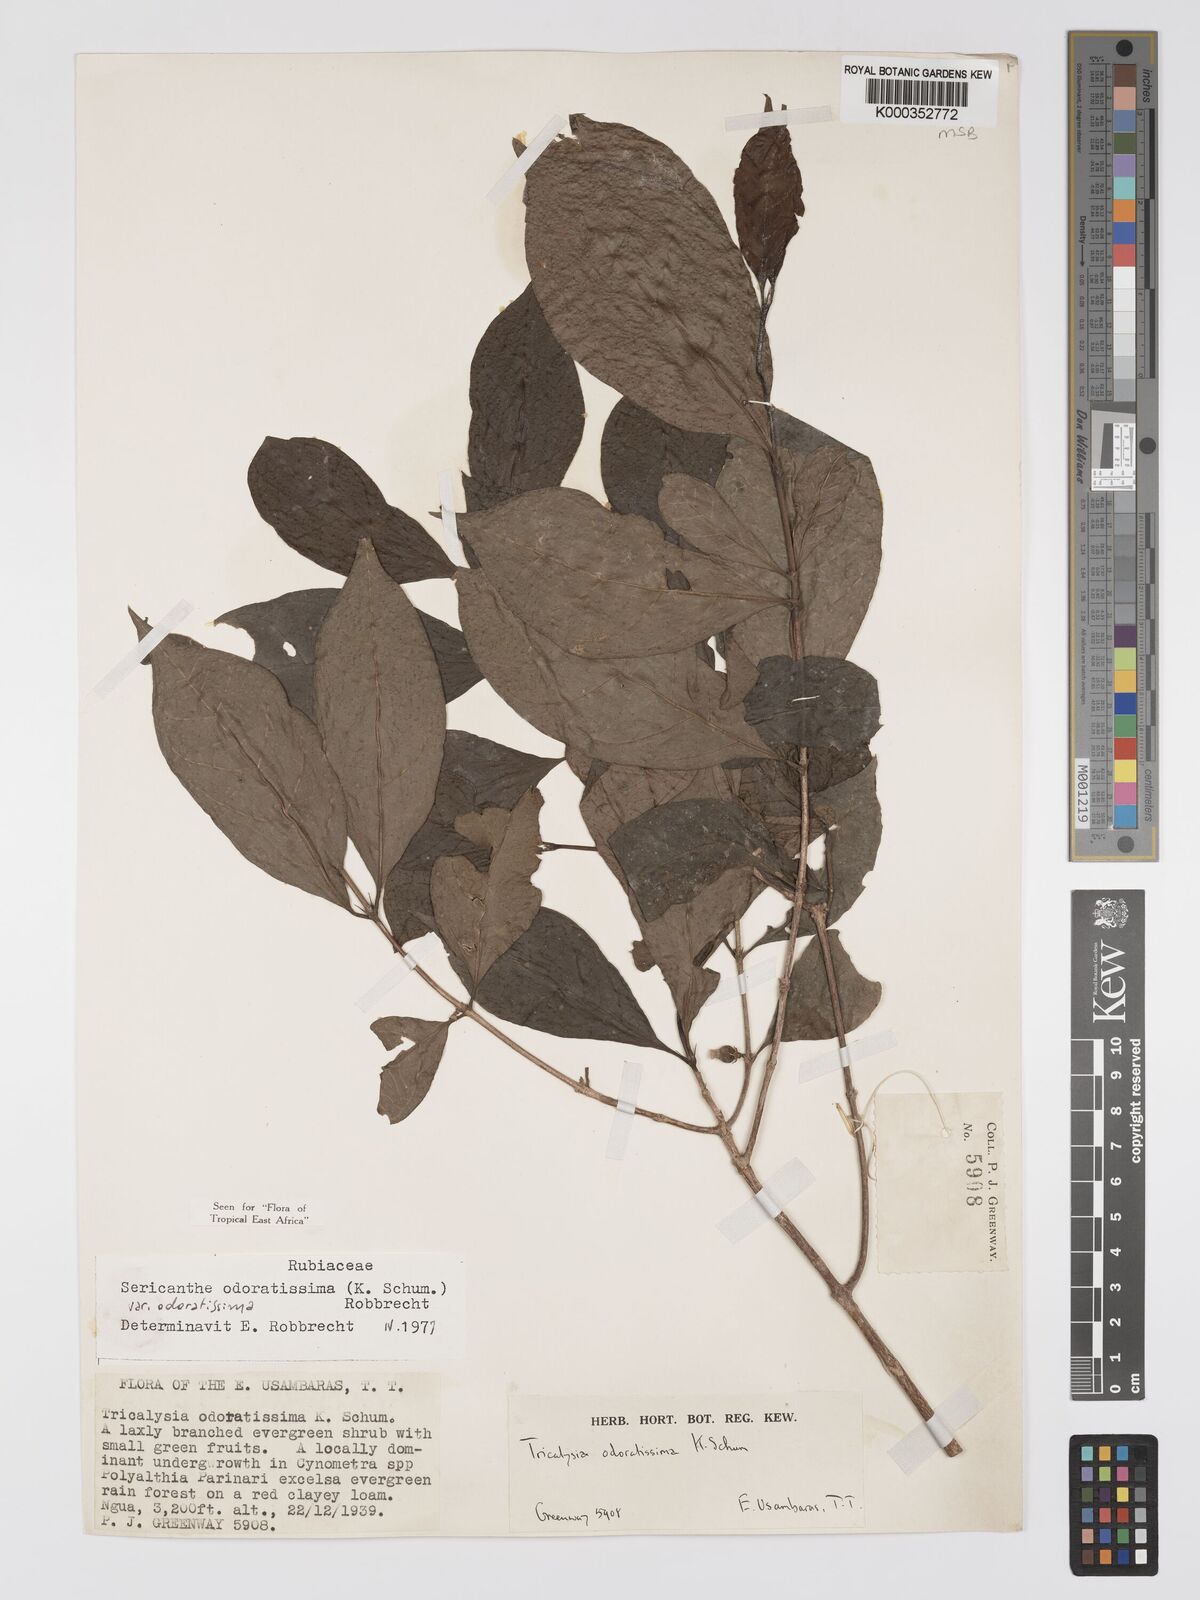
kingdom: Plantae
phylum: Tracheophyta
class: Magnoliopsida
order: Gentianales
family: Rubiaceae
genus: Sericanthe
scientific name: Sericanthe odoratissima
